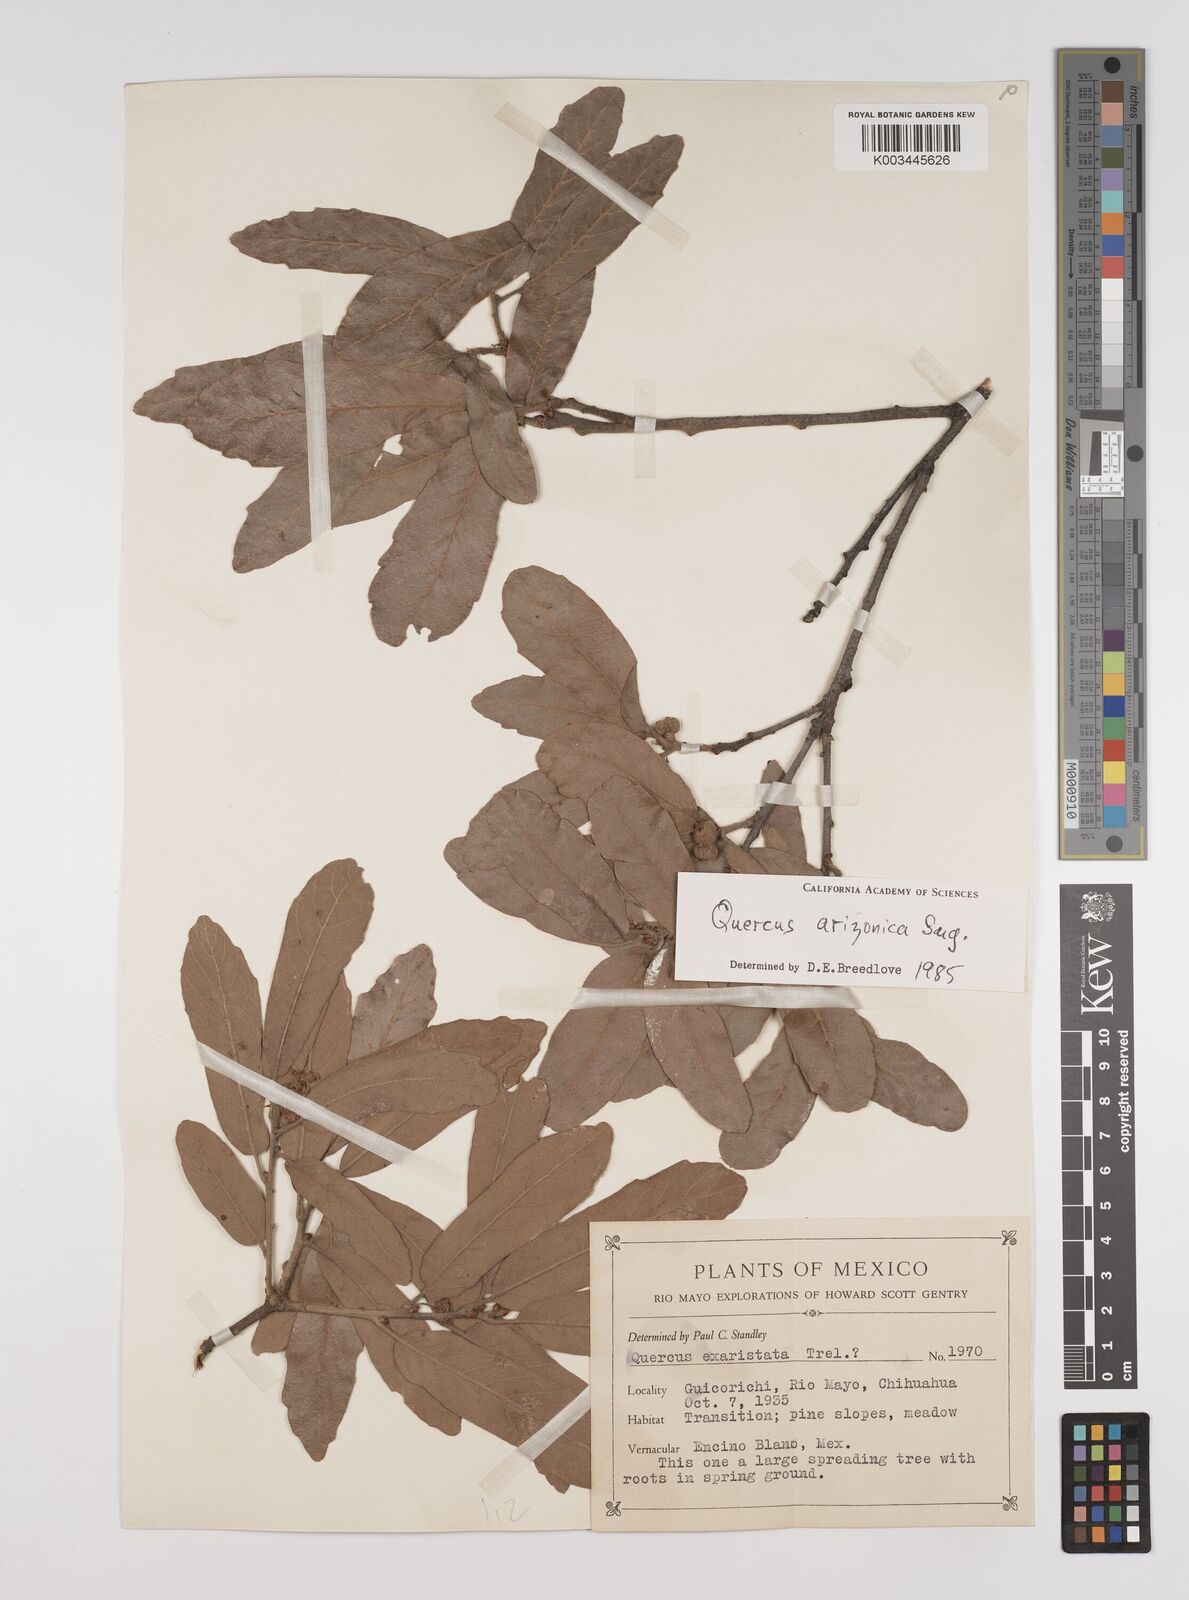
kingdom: Plantae
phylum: Tracheophyta
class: Magnoliopsida
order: Fagales
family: Fagaceae
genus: Quercus
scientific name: Quercus arizonica
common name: Arizona white oak
